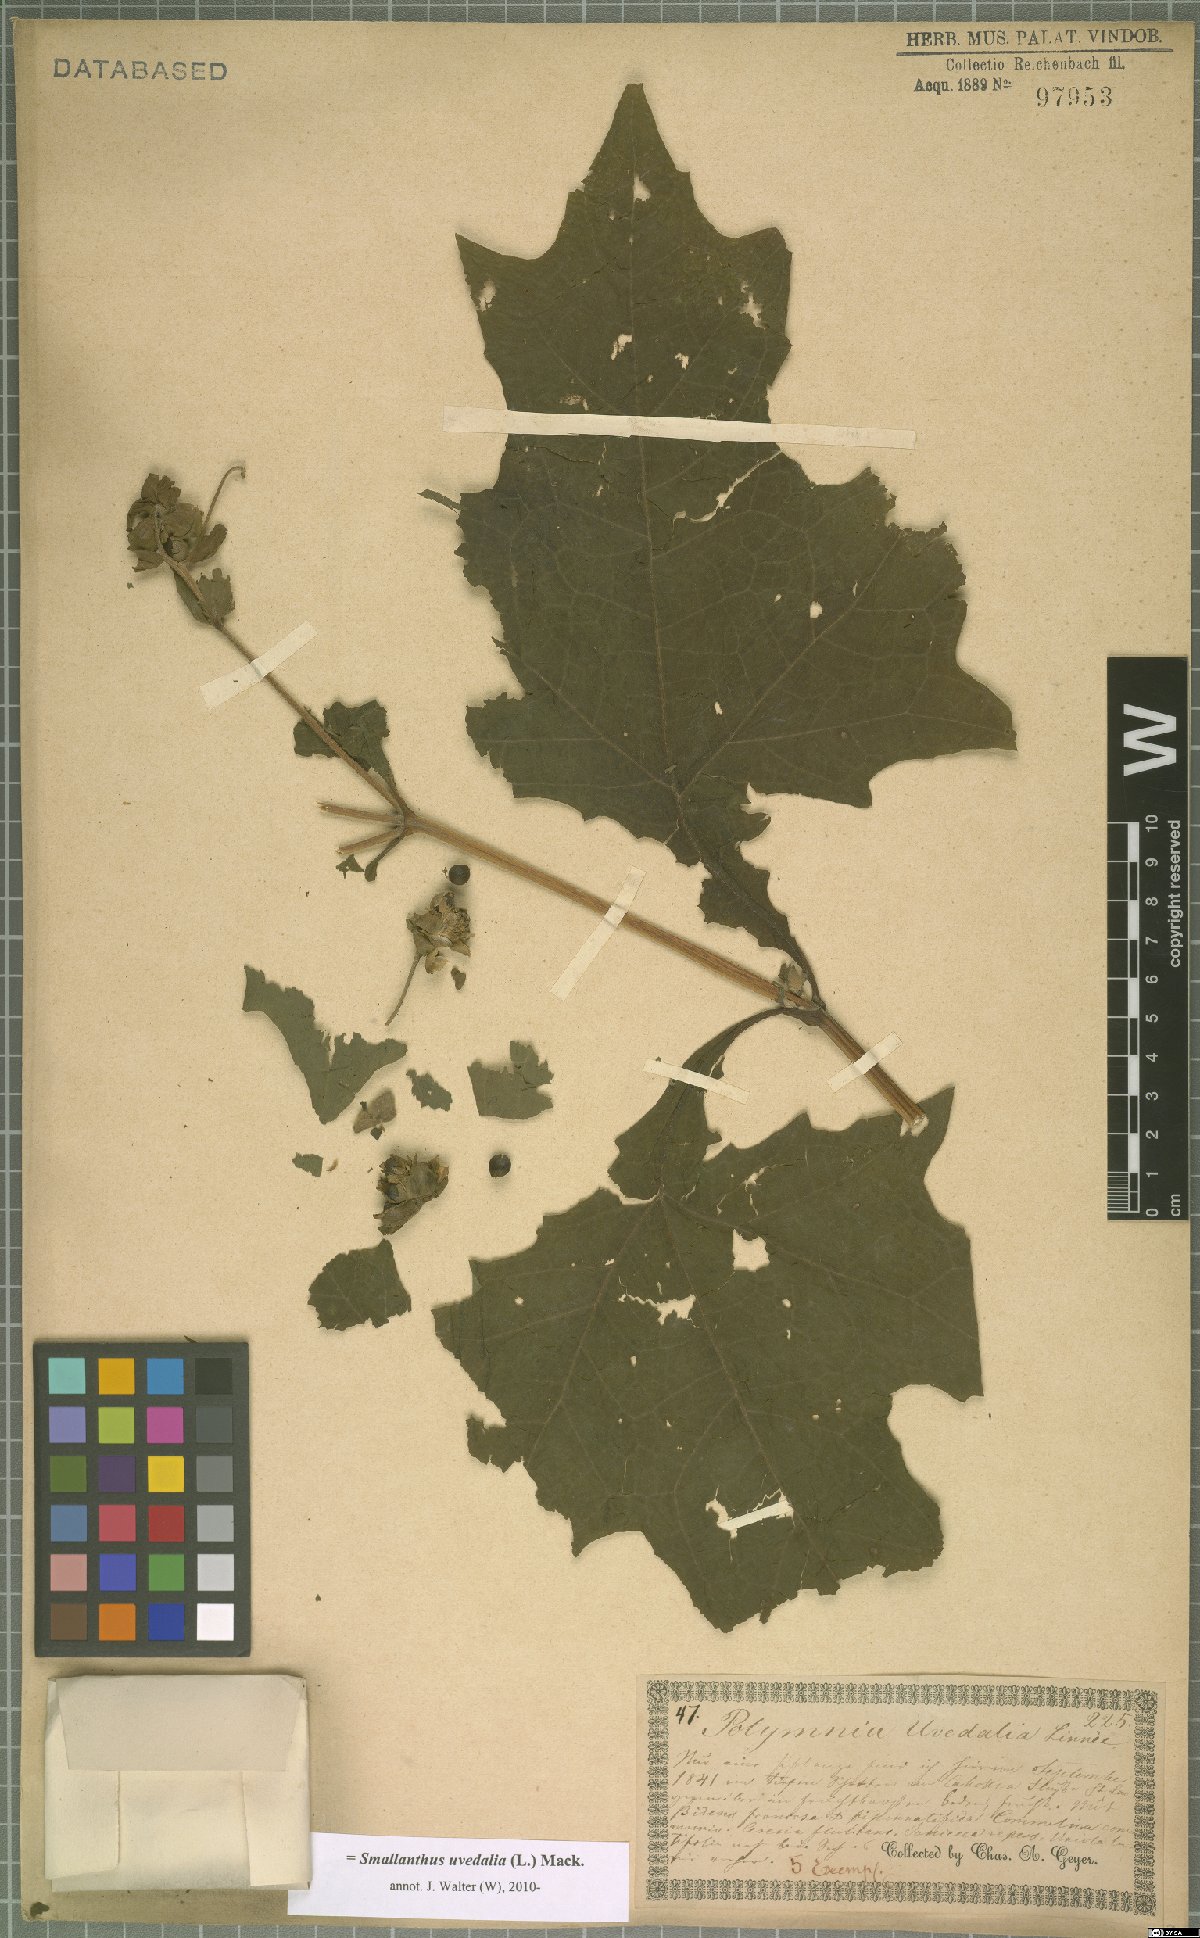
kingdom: Plantae
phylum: Tracheophyta
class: Magnoliopsida
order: Asterales
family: Asteraceae
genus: Smallanthus
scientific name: Smallanthus uvedalia
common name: Bear's-foot
